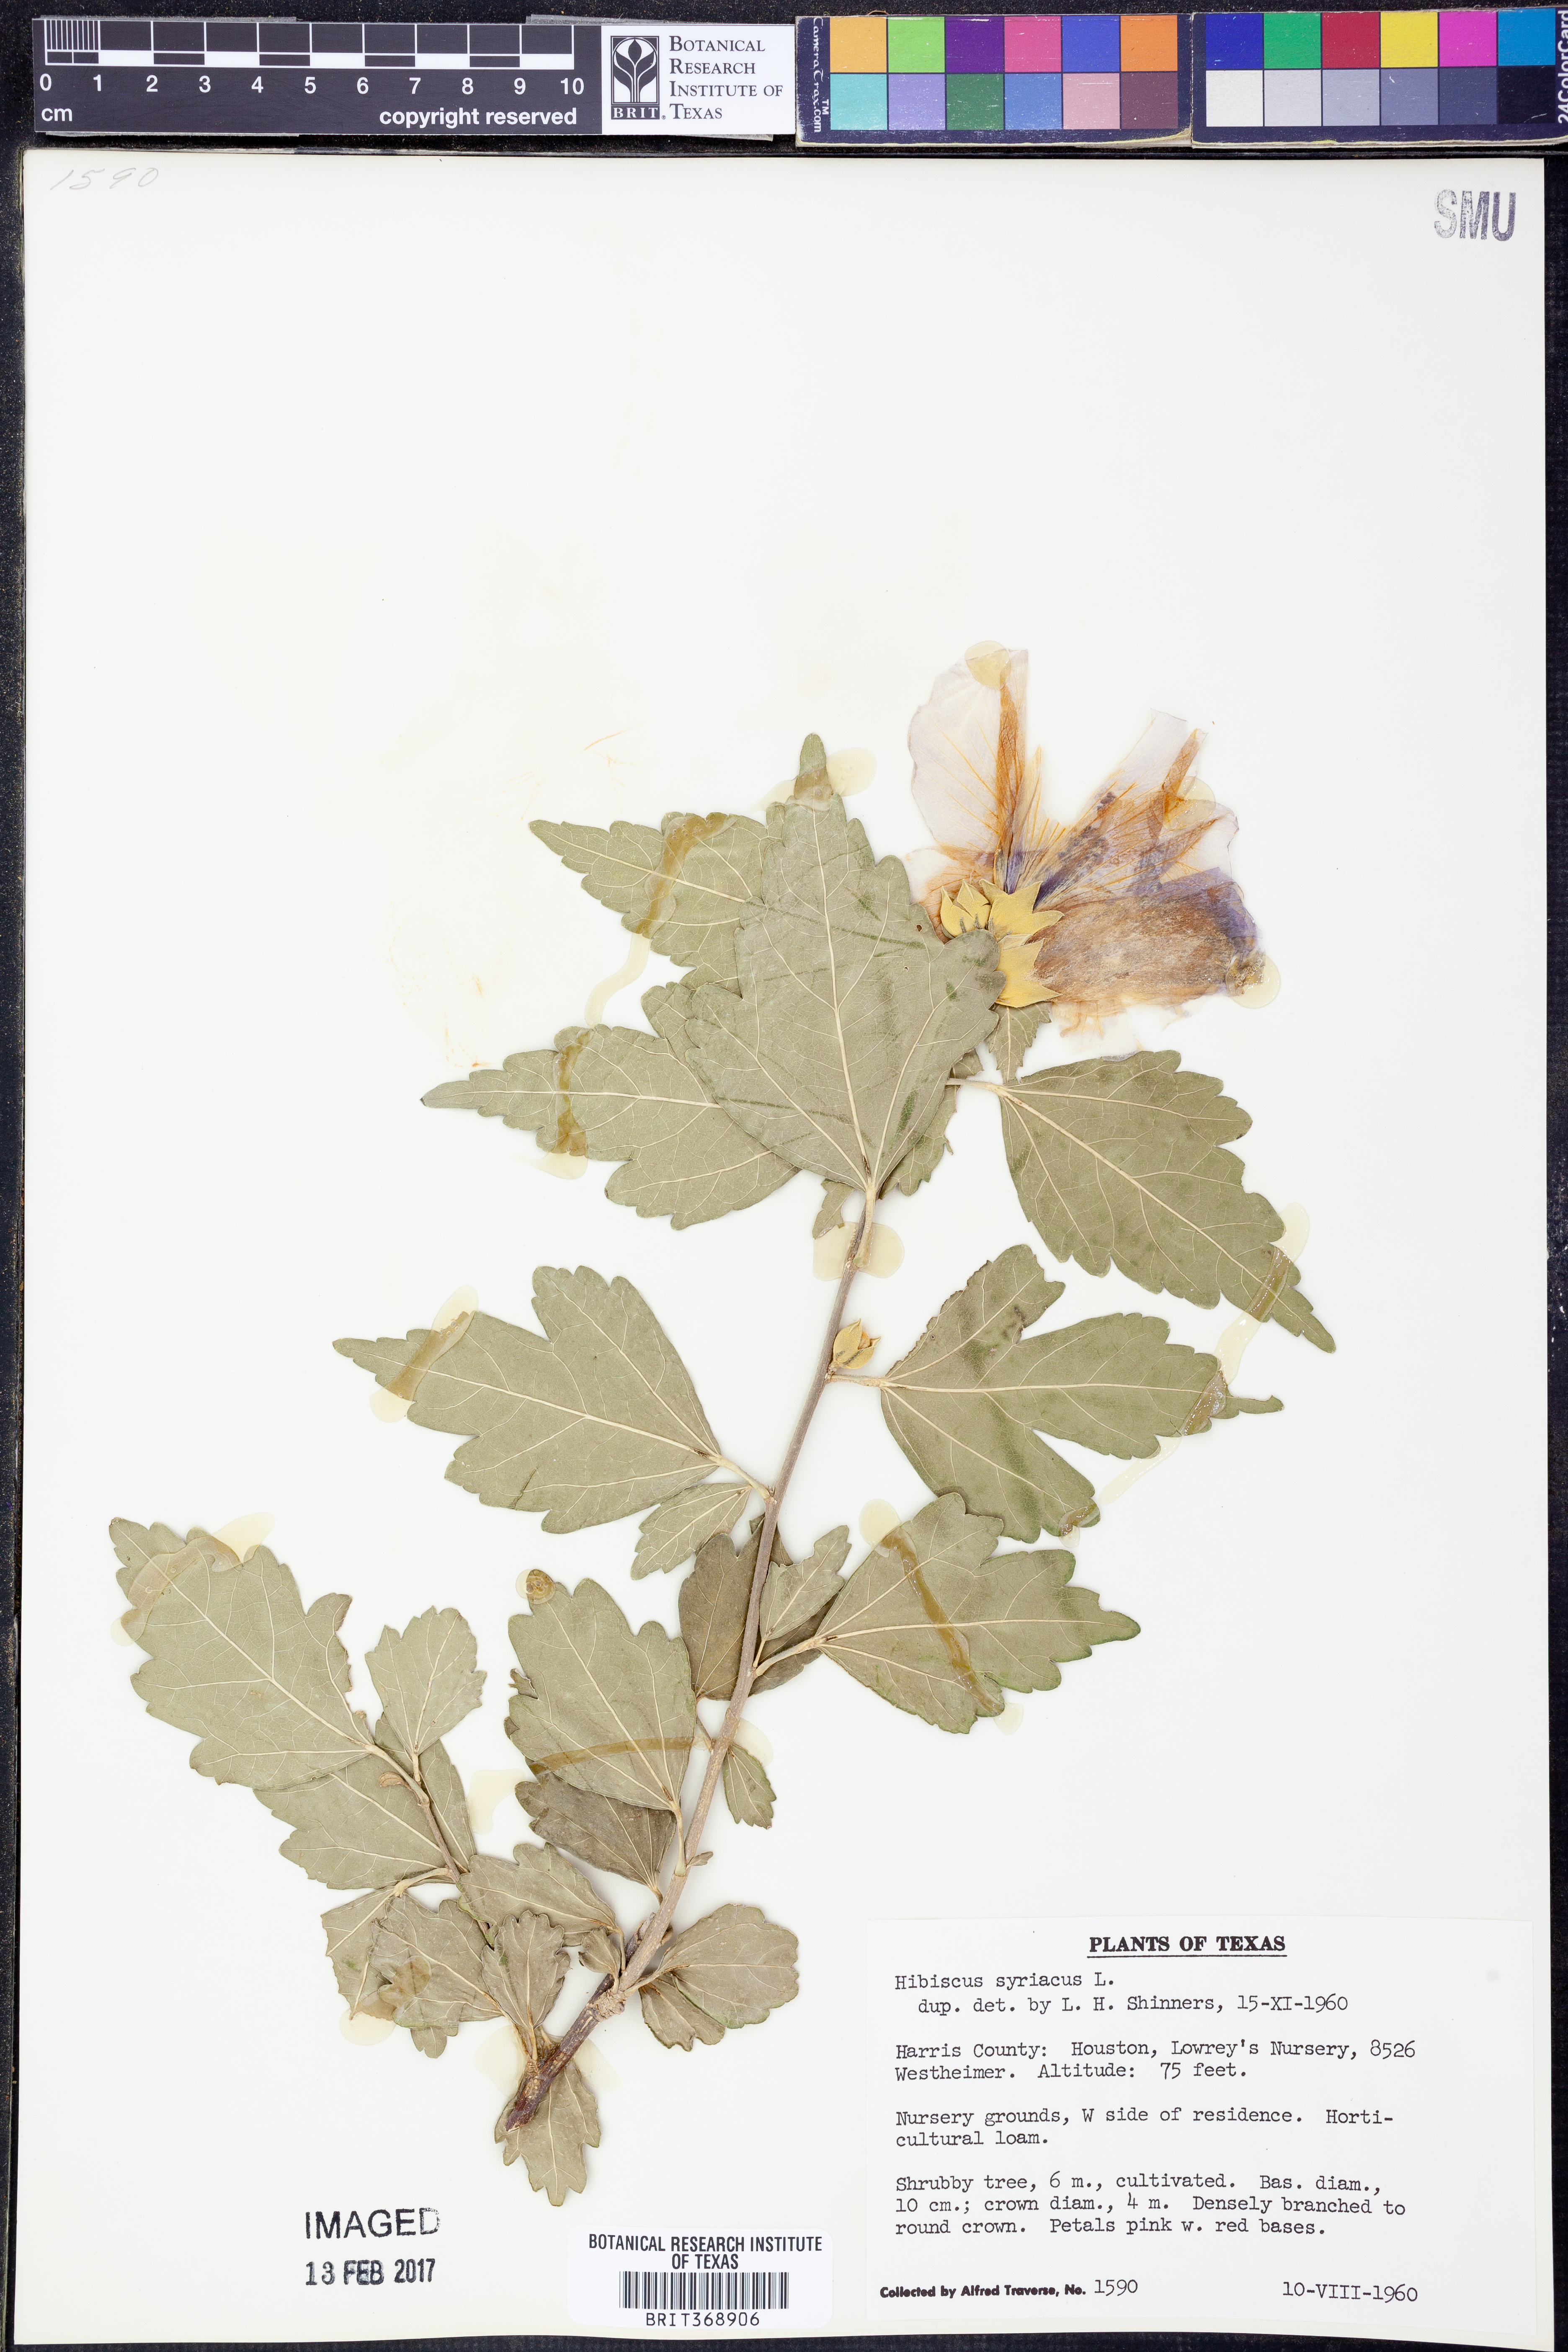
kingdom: Plantae
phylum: Tracheophyta
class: Magnoliopsida
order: Malvales
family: Malvaceae
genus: Hibiscus
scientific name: Hibiscus syriacus
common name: Syrian ketmia
